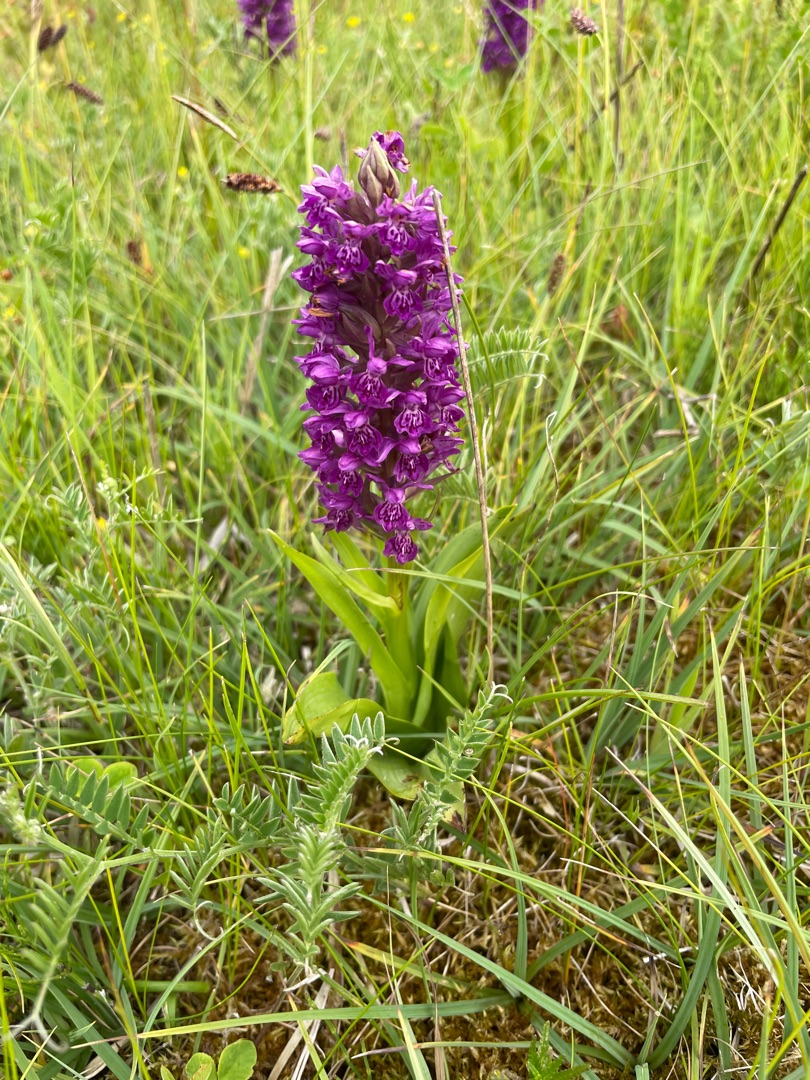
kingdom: Plantae
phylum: Tracheophyta
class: Liliopsida
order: Asparagales
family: Orchidaceae
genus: Dactylorhiza
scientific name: Dactylorhiza majalis
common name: Purpur-gøgeurt
